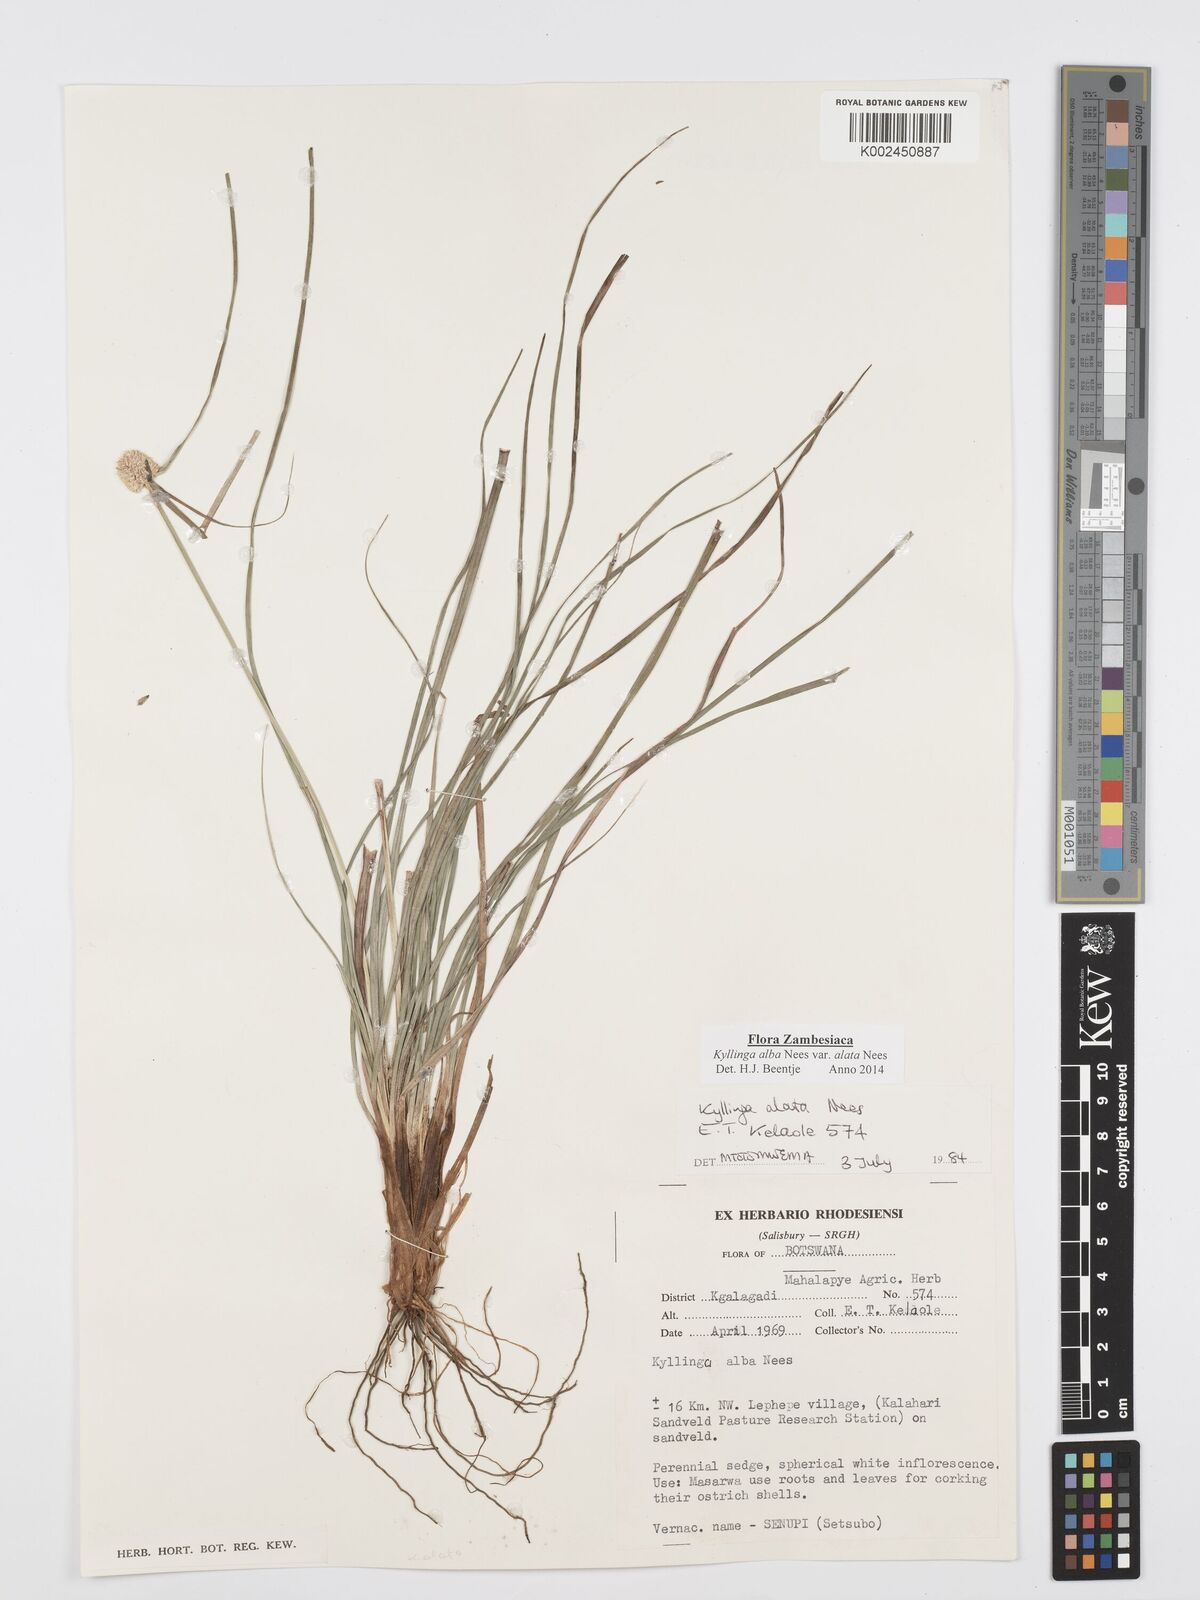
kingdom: Plantae
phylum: Tracheophyta
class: Liliopsida
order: Poales
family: Cyperaceae
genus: Cyperus
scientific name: Cyperus alatus
